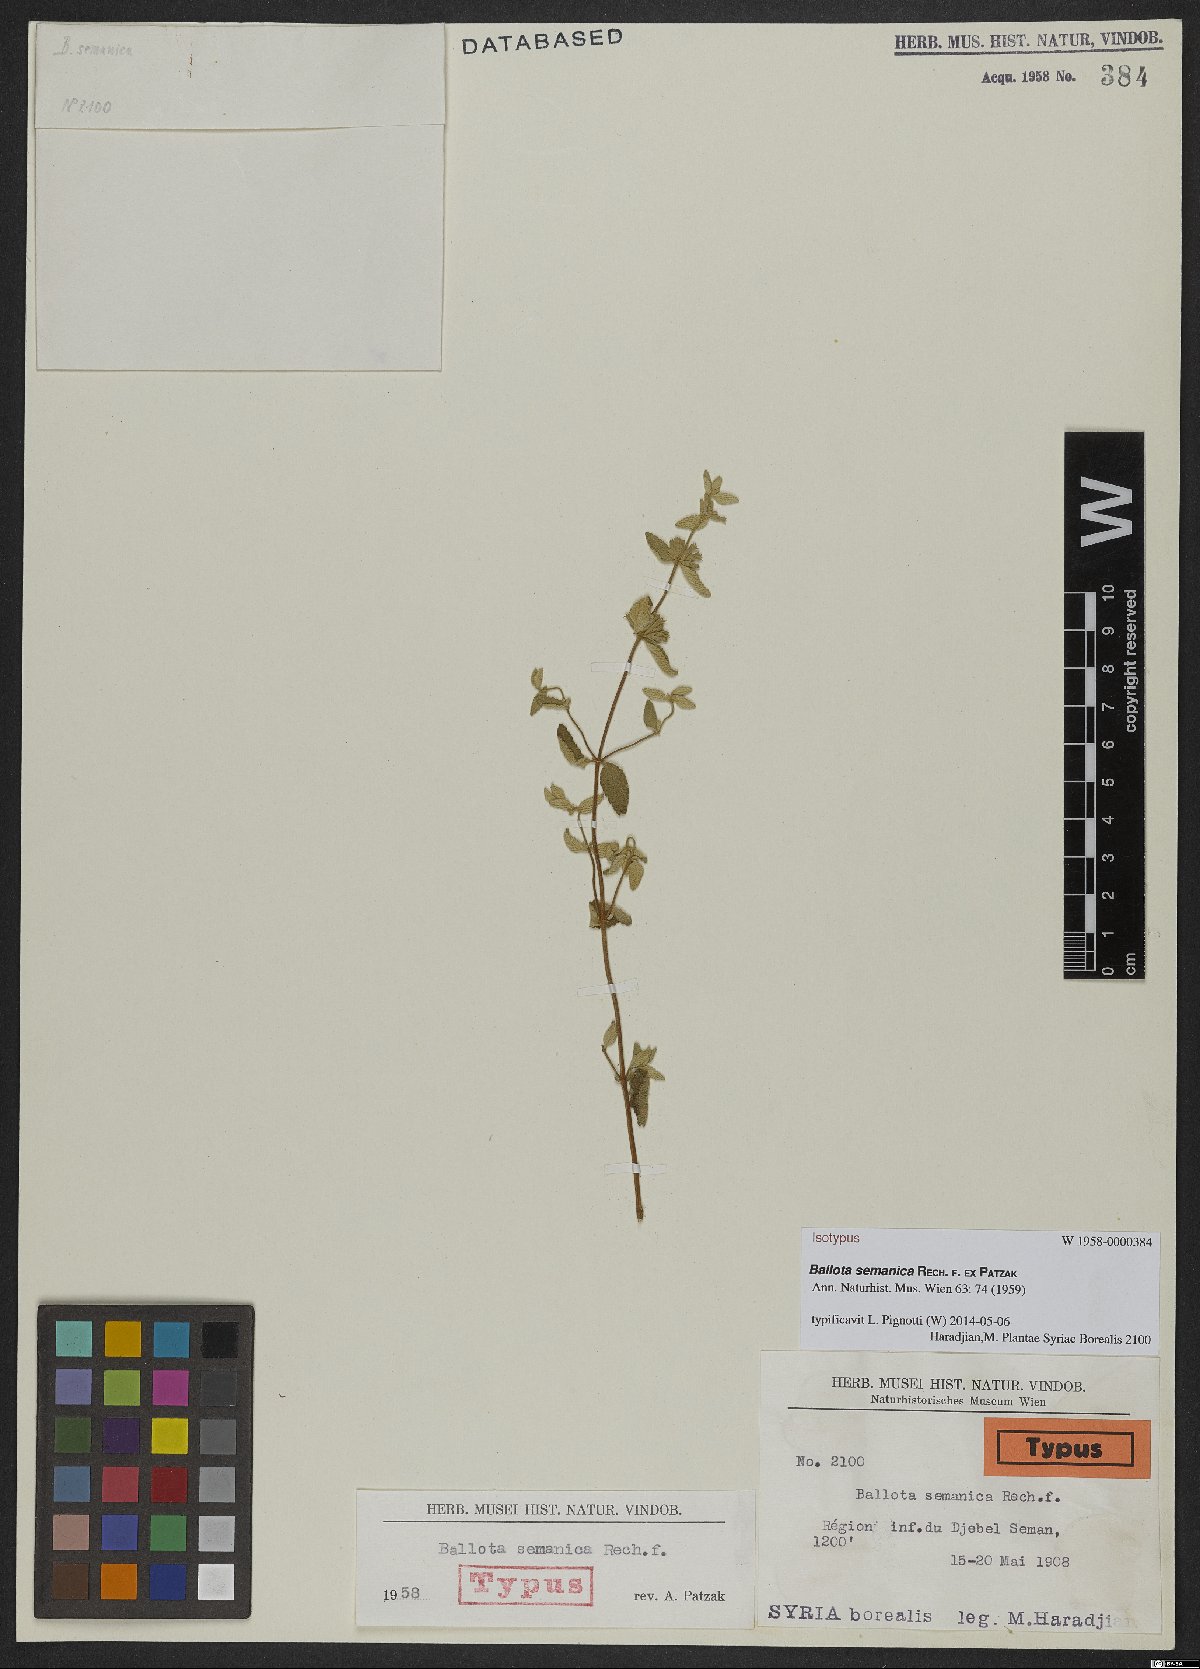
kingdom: Plantae
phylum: Tracheophyta
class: Magnoliopsida
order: Lamiales
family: Lamiaceae
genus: Ballota
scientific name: Ballota saxatilis
